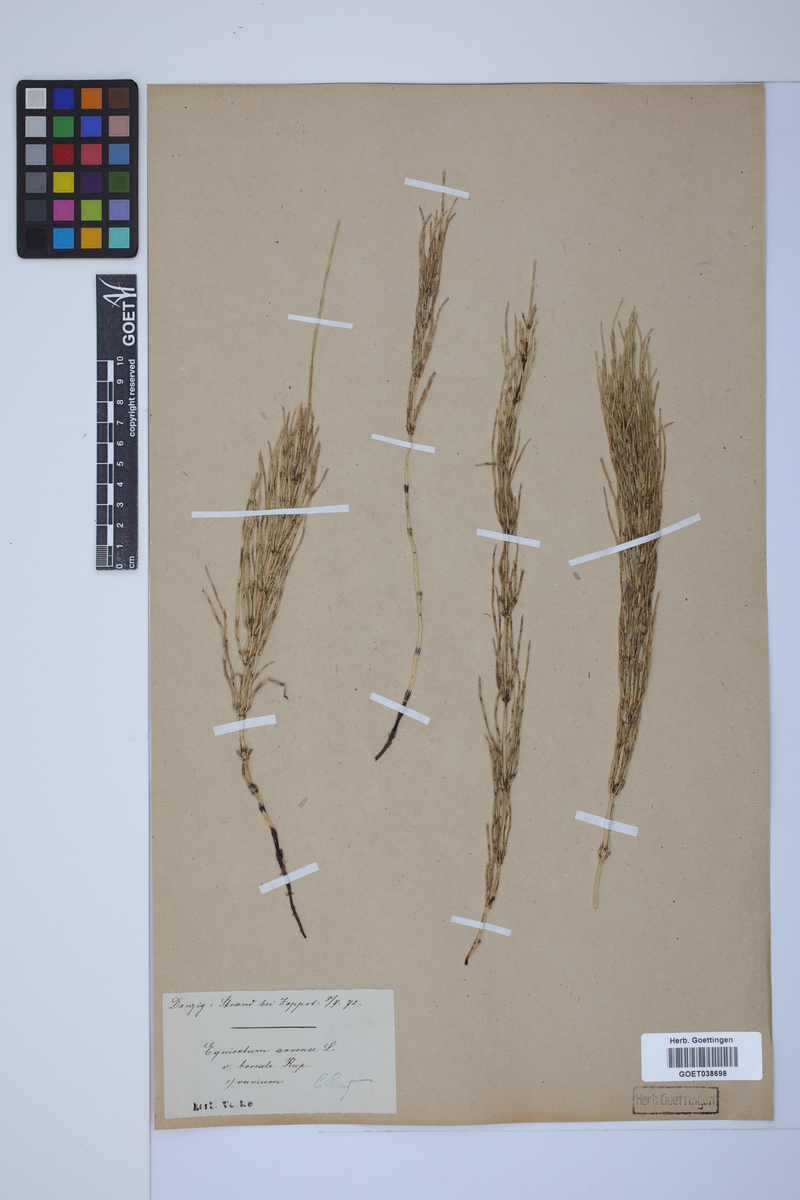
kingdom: Plantae
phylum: Tracheophyta
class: Polypodiopsida
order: Equisetales
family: Equisetaceae
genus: Equisetum
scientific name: Equisetum litorale
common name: Littoral horsetail
